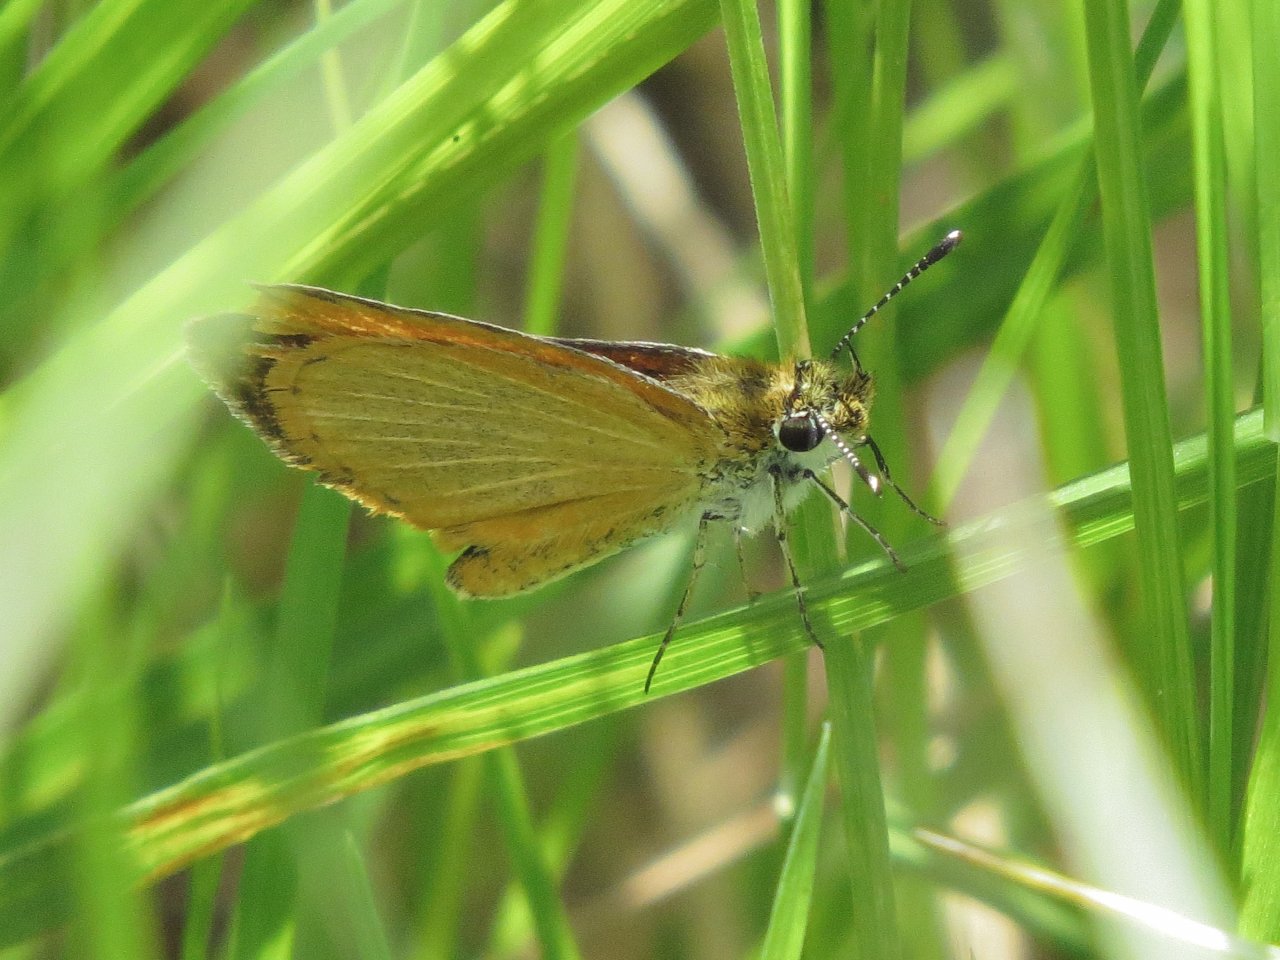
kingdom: Animalia
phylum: Arthropoda
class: Insecta
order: Lepidoptera
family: Hesperiidae
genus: Ancyloxypha
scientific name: Ancyloxypha numitor
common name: Least Skipper
